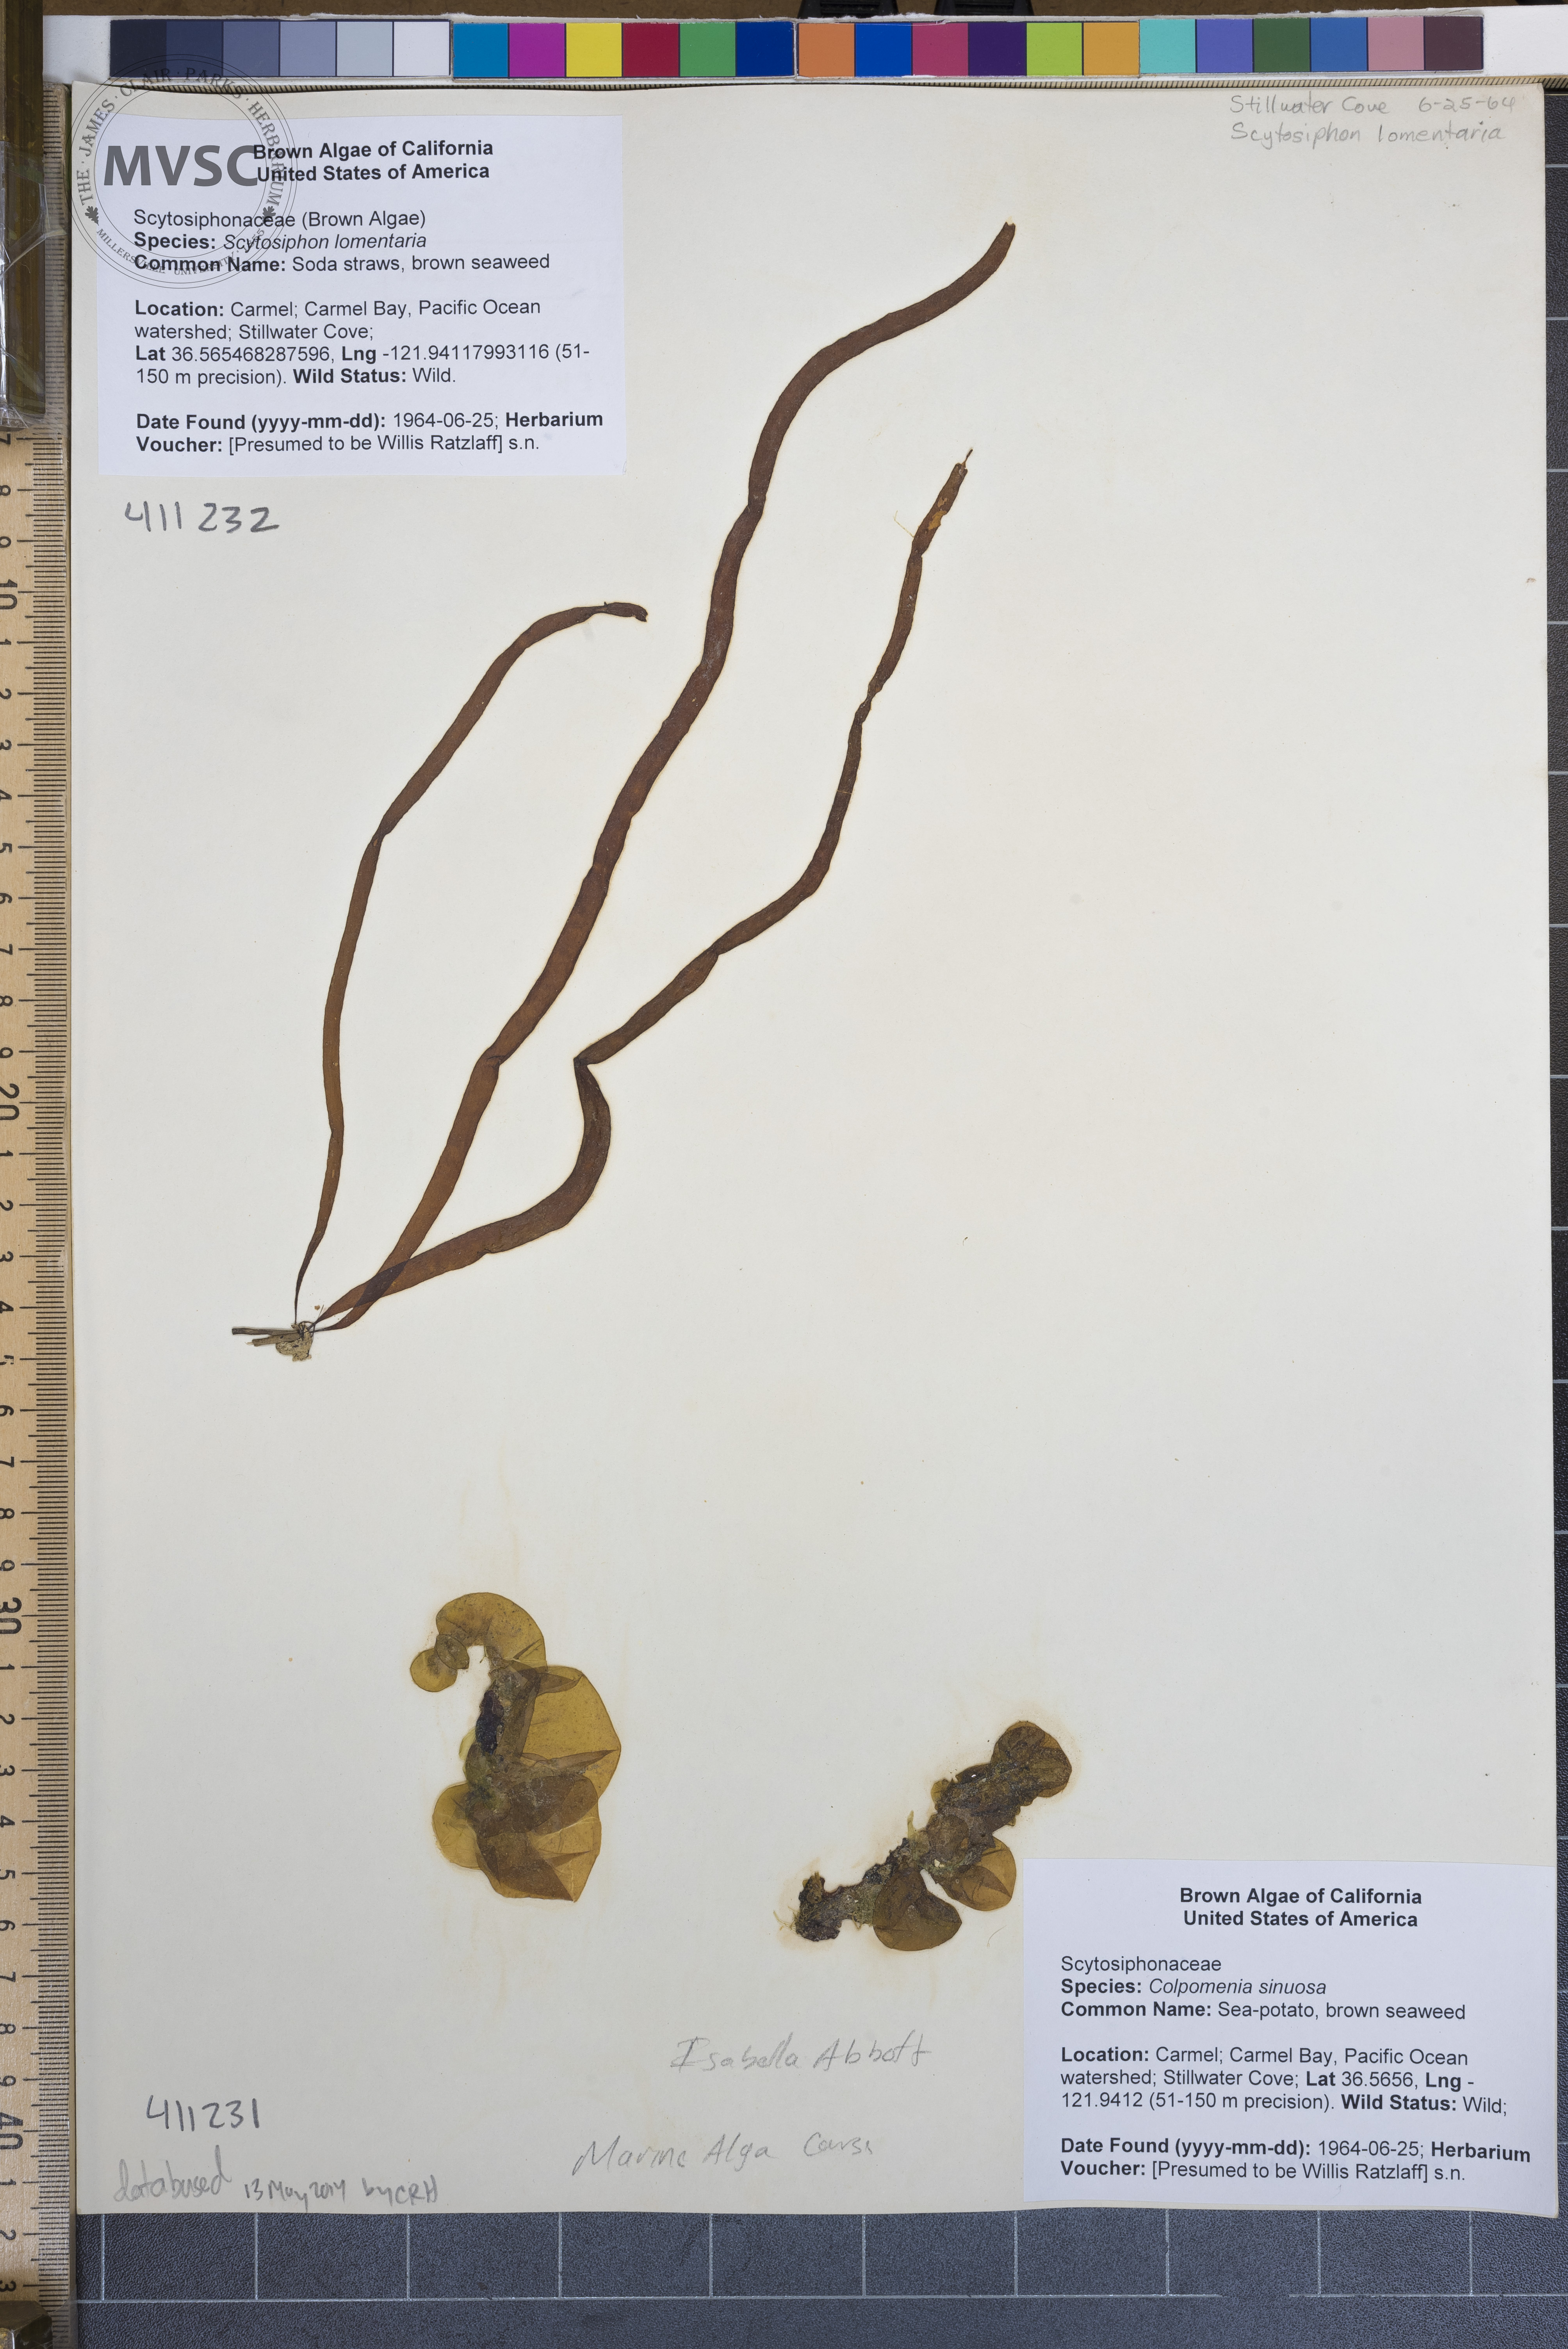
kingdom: Chromista
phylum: Ochrophyta
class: Phaeophyceae
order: Scytosiphonales
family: Scytosiphonaceae
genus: Colpomenia
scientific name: Colpomenia sinuosa
